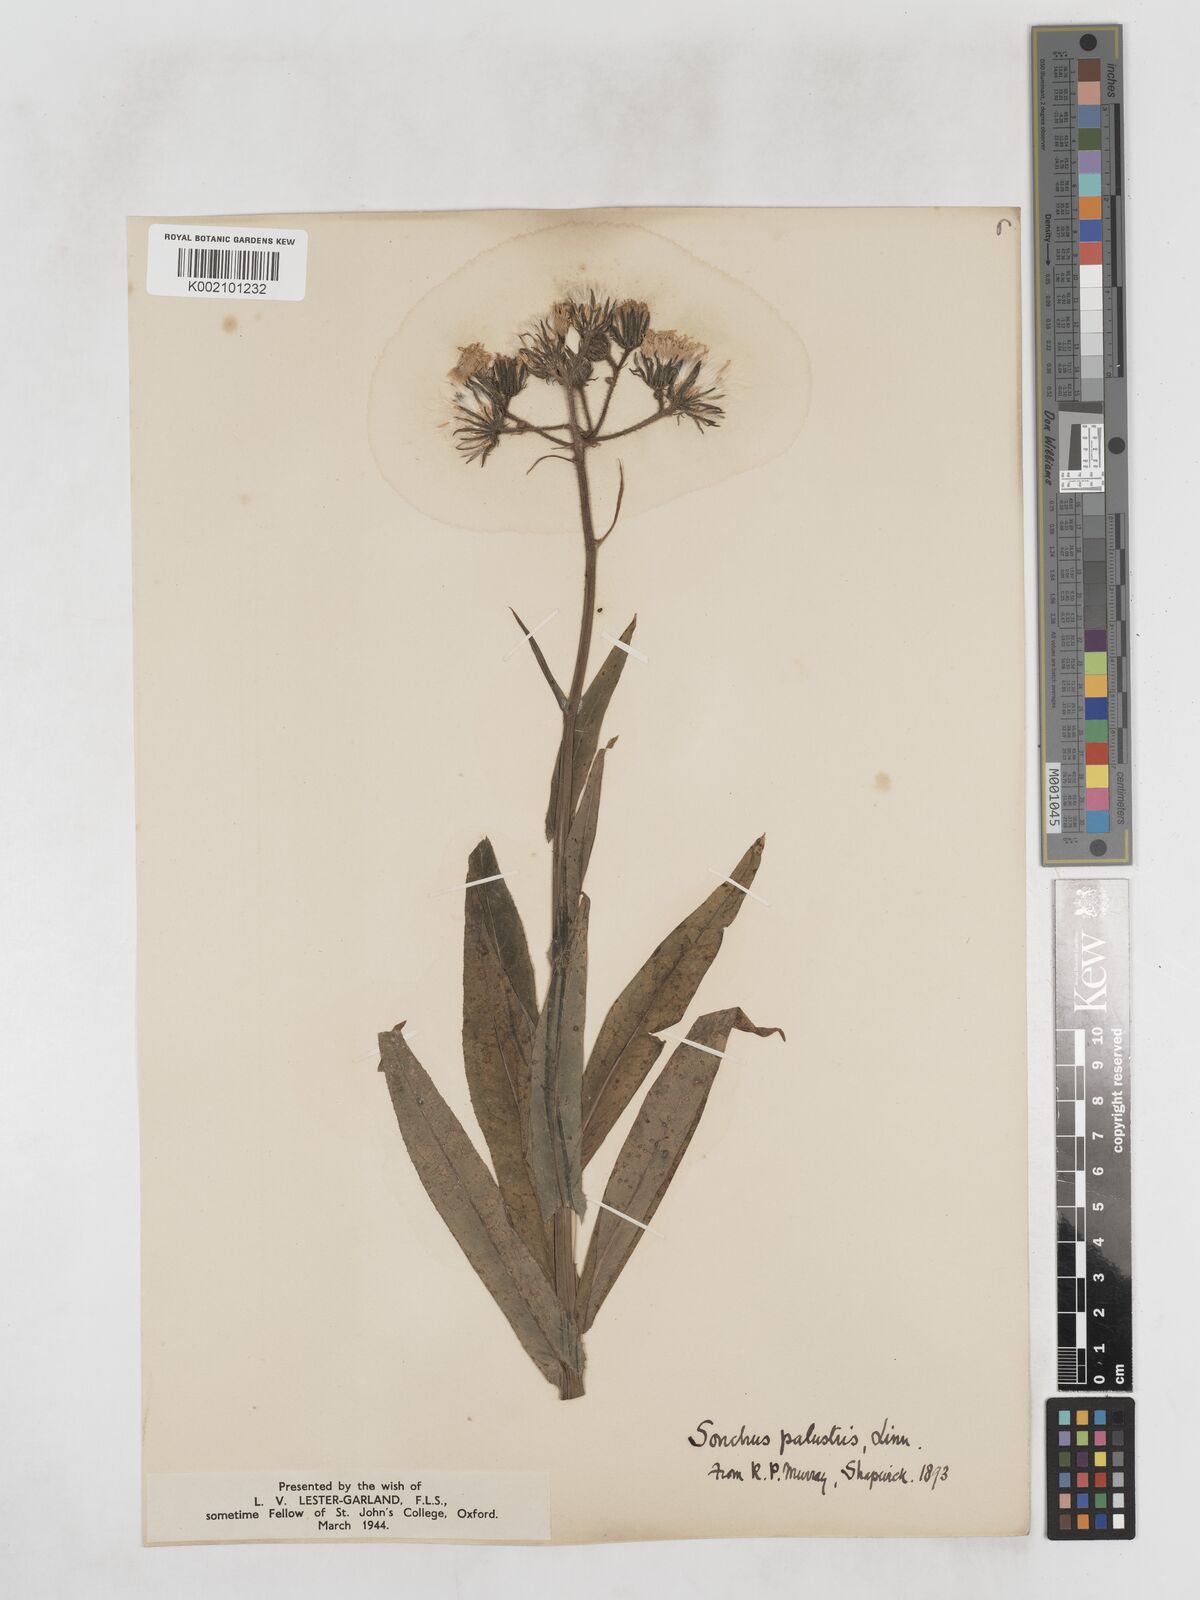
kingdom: Plantae
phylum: Tracheophyta
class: Magnoliopsida
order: Asterales
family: Asteraceae
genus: Sonchus
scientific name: Sonchus palustris
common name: Marsh sow-thistle
